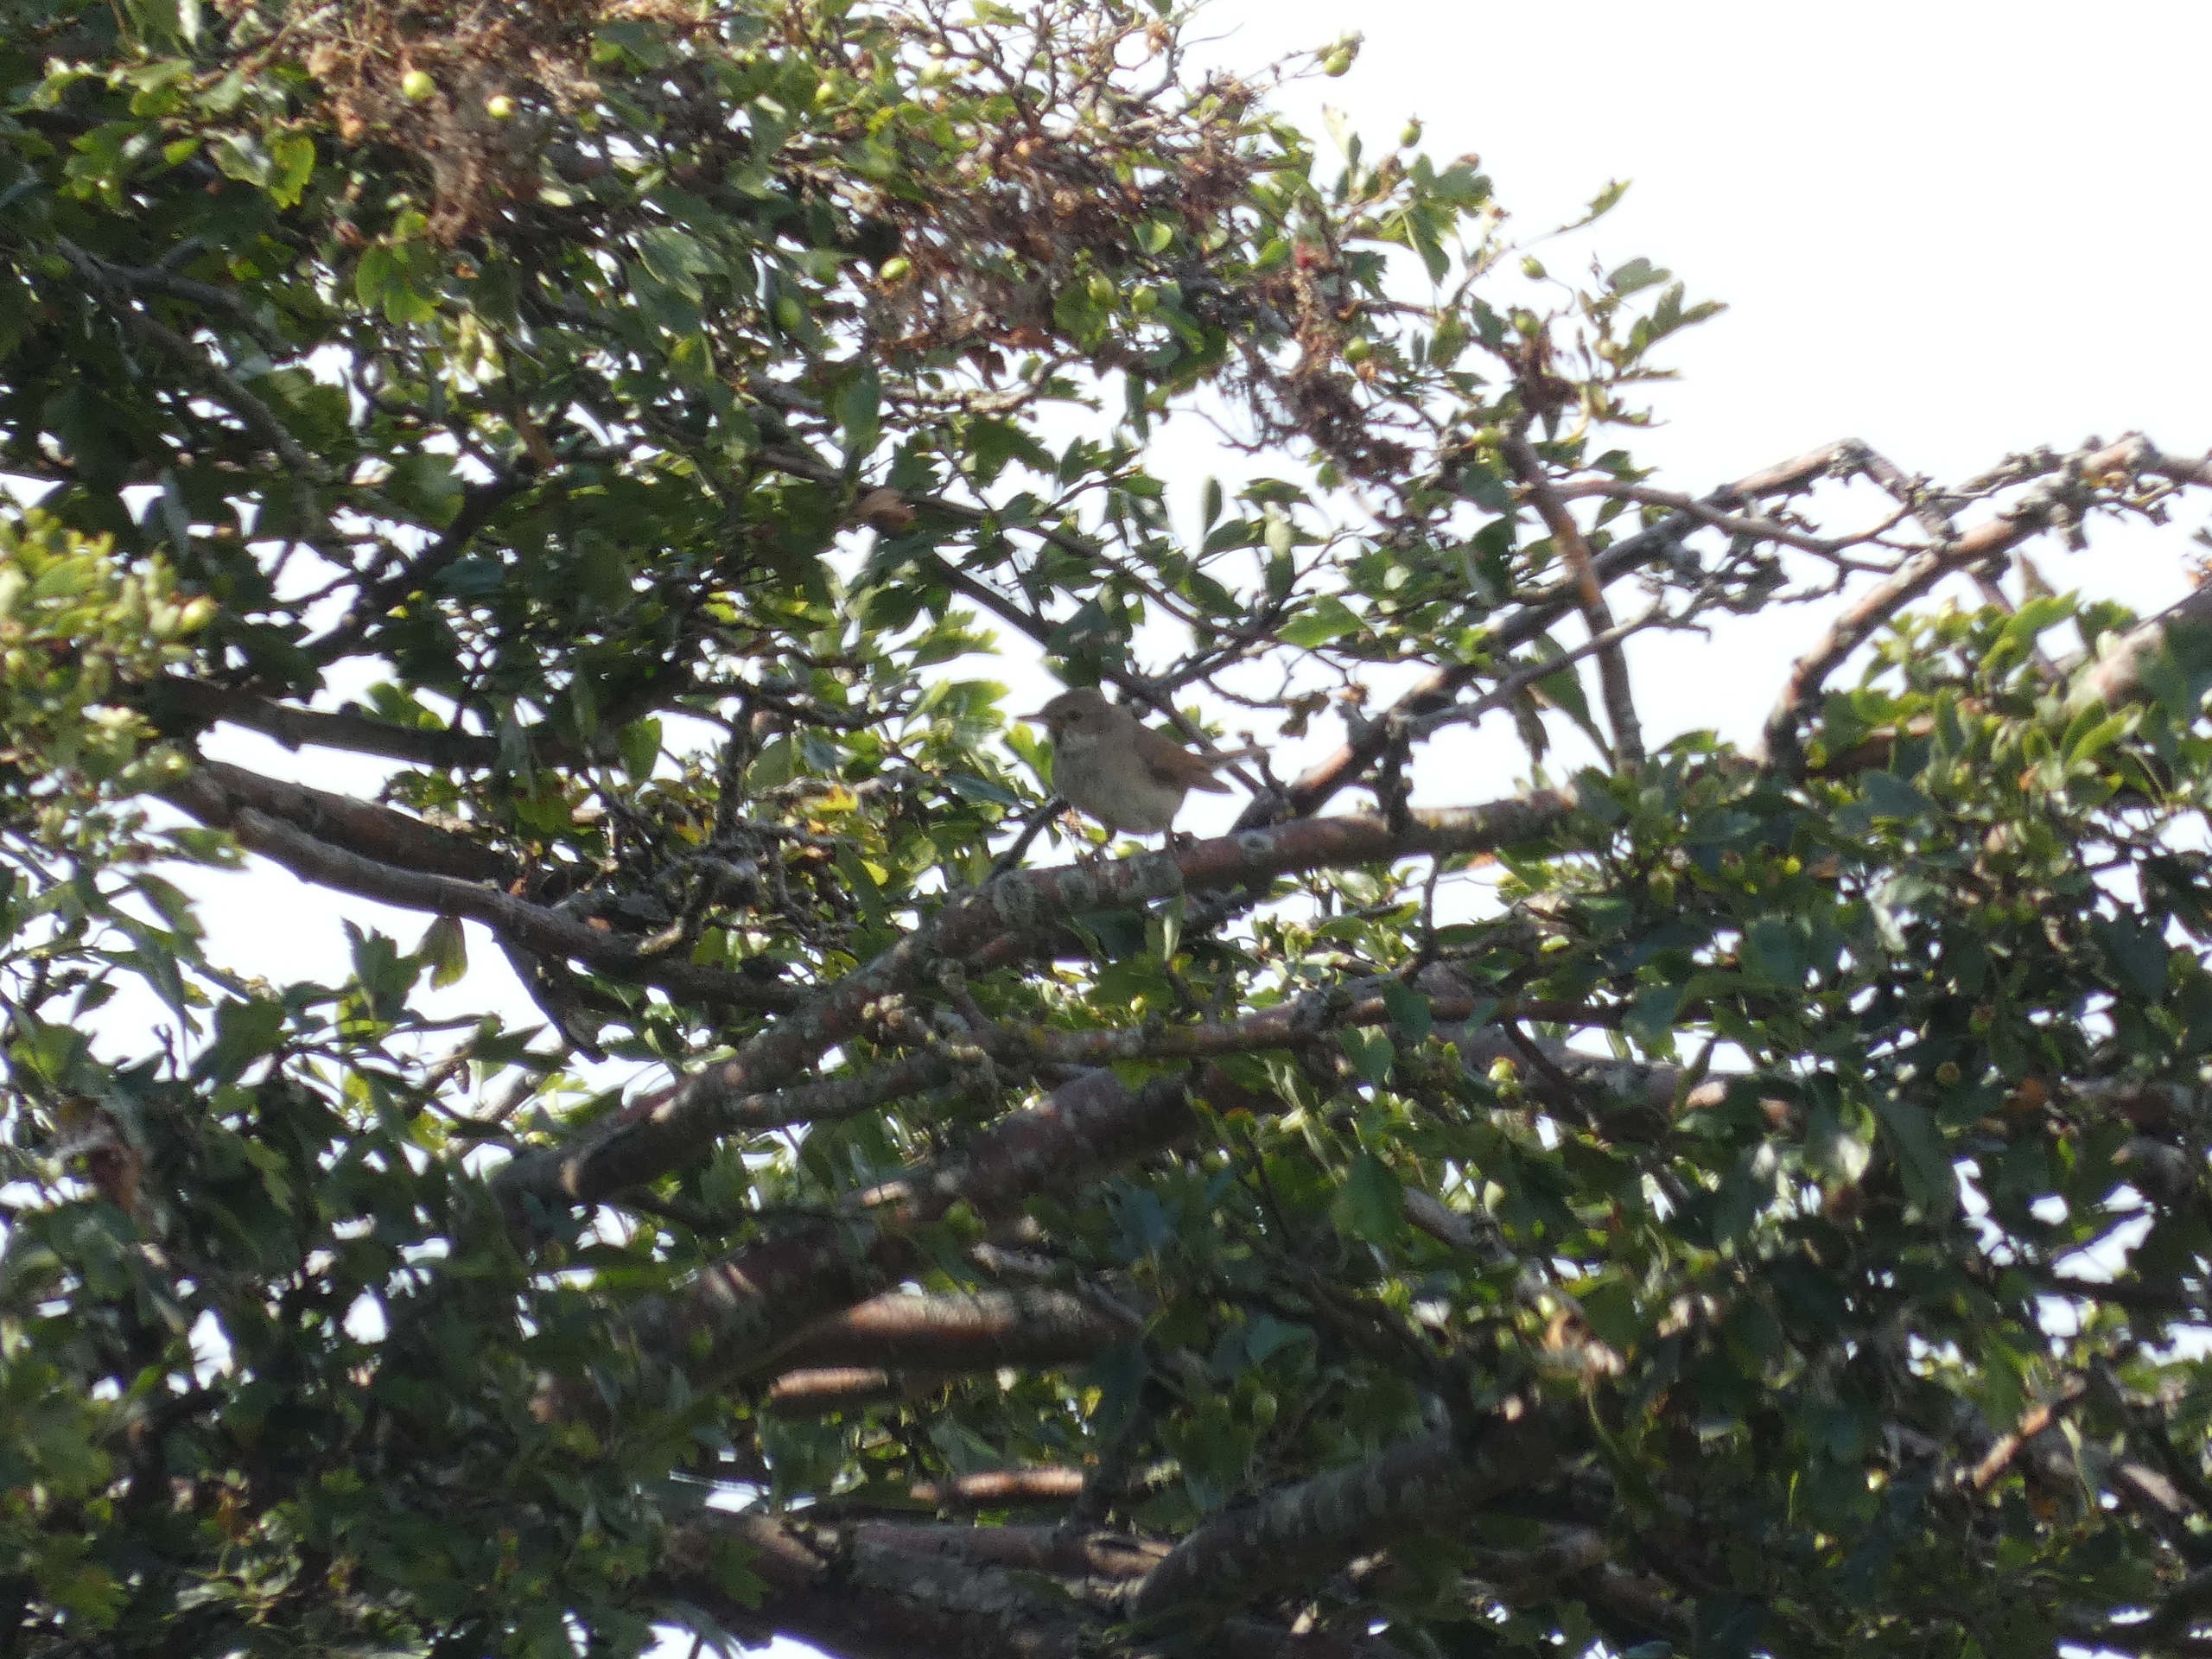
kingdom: Animalia
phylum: Chordata
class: Aves
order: Passeriformes
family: Sylviidae
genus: Sylvia
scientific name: Sylvia communis
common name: Tornsanger
